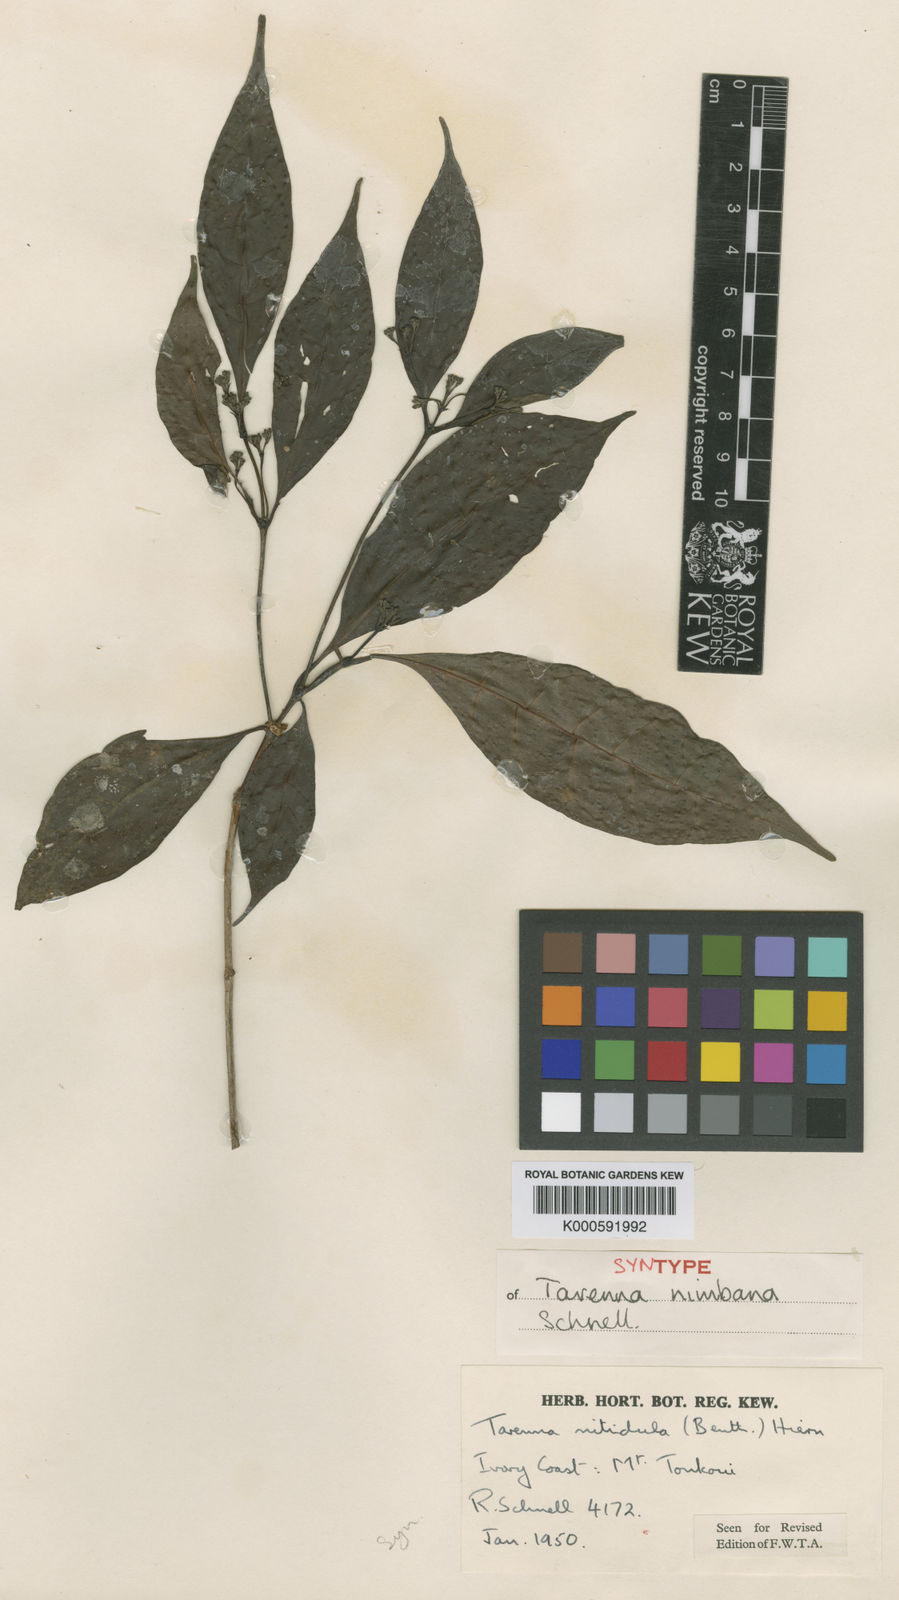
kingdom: Plantae
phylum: Tracheophyta
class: Magnoliopsida
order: Gentianales
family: Rubiaceae
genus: Tarenna
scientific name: Tarenna nitidula
